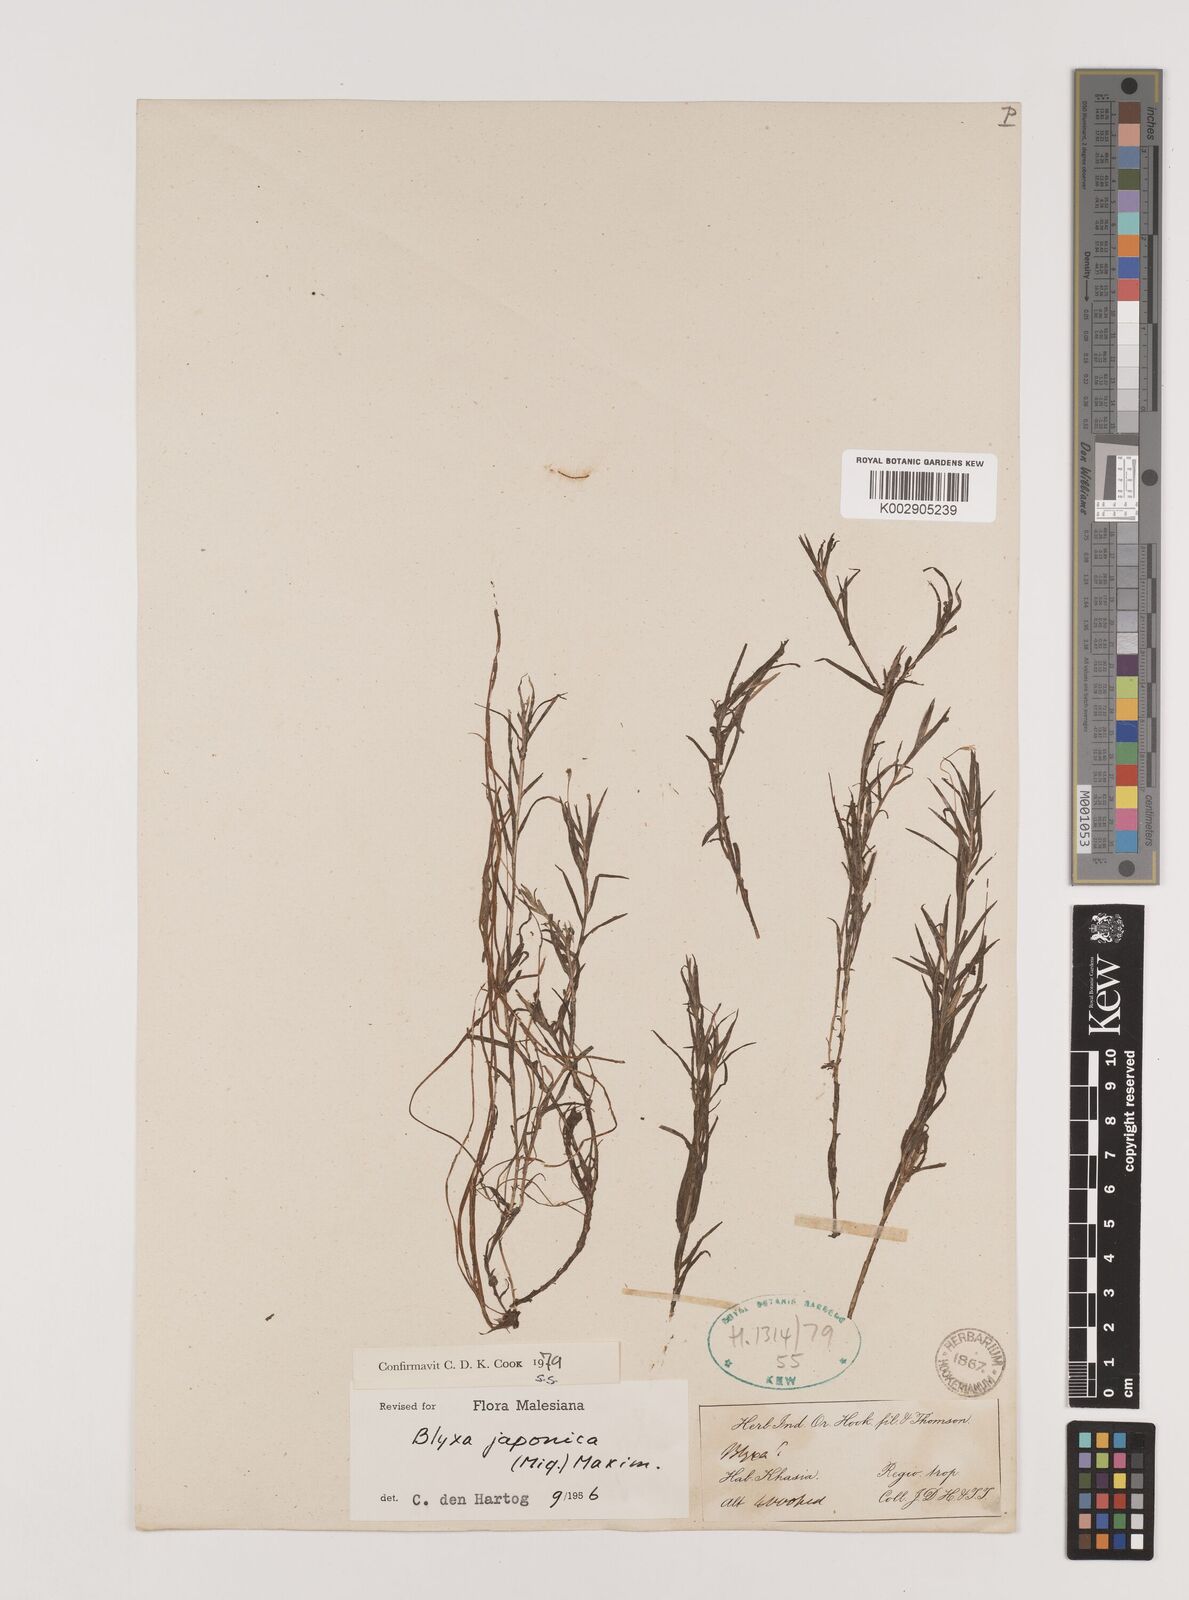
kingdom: Plantae
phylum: Tracheophyta
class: Liliopsida
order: Alismatales
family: Hydrocharitaceae
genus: Blyxa
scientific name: Blyxa japonica
